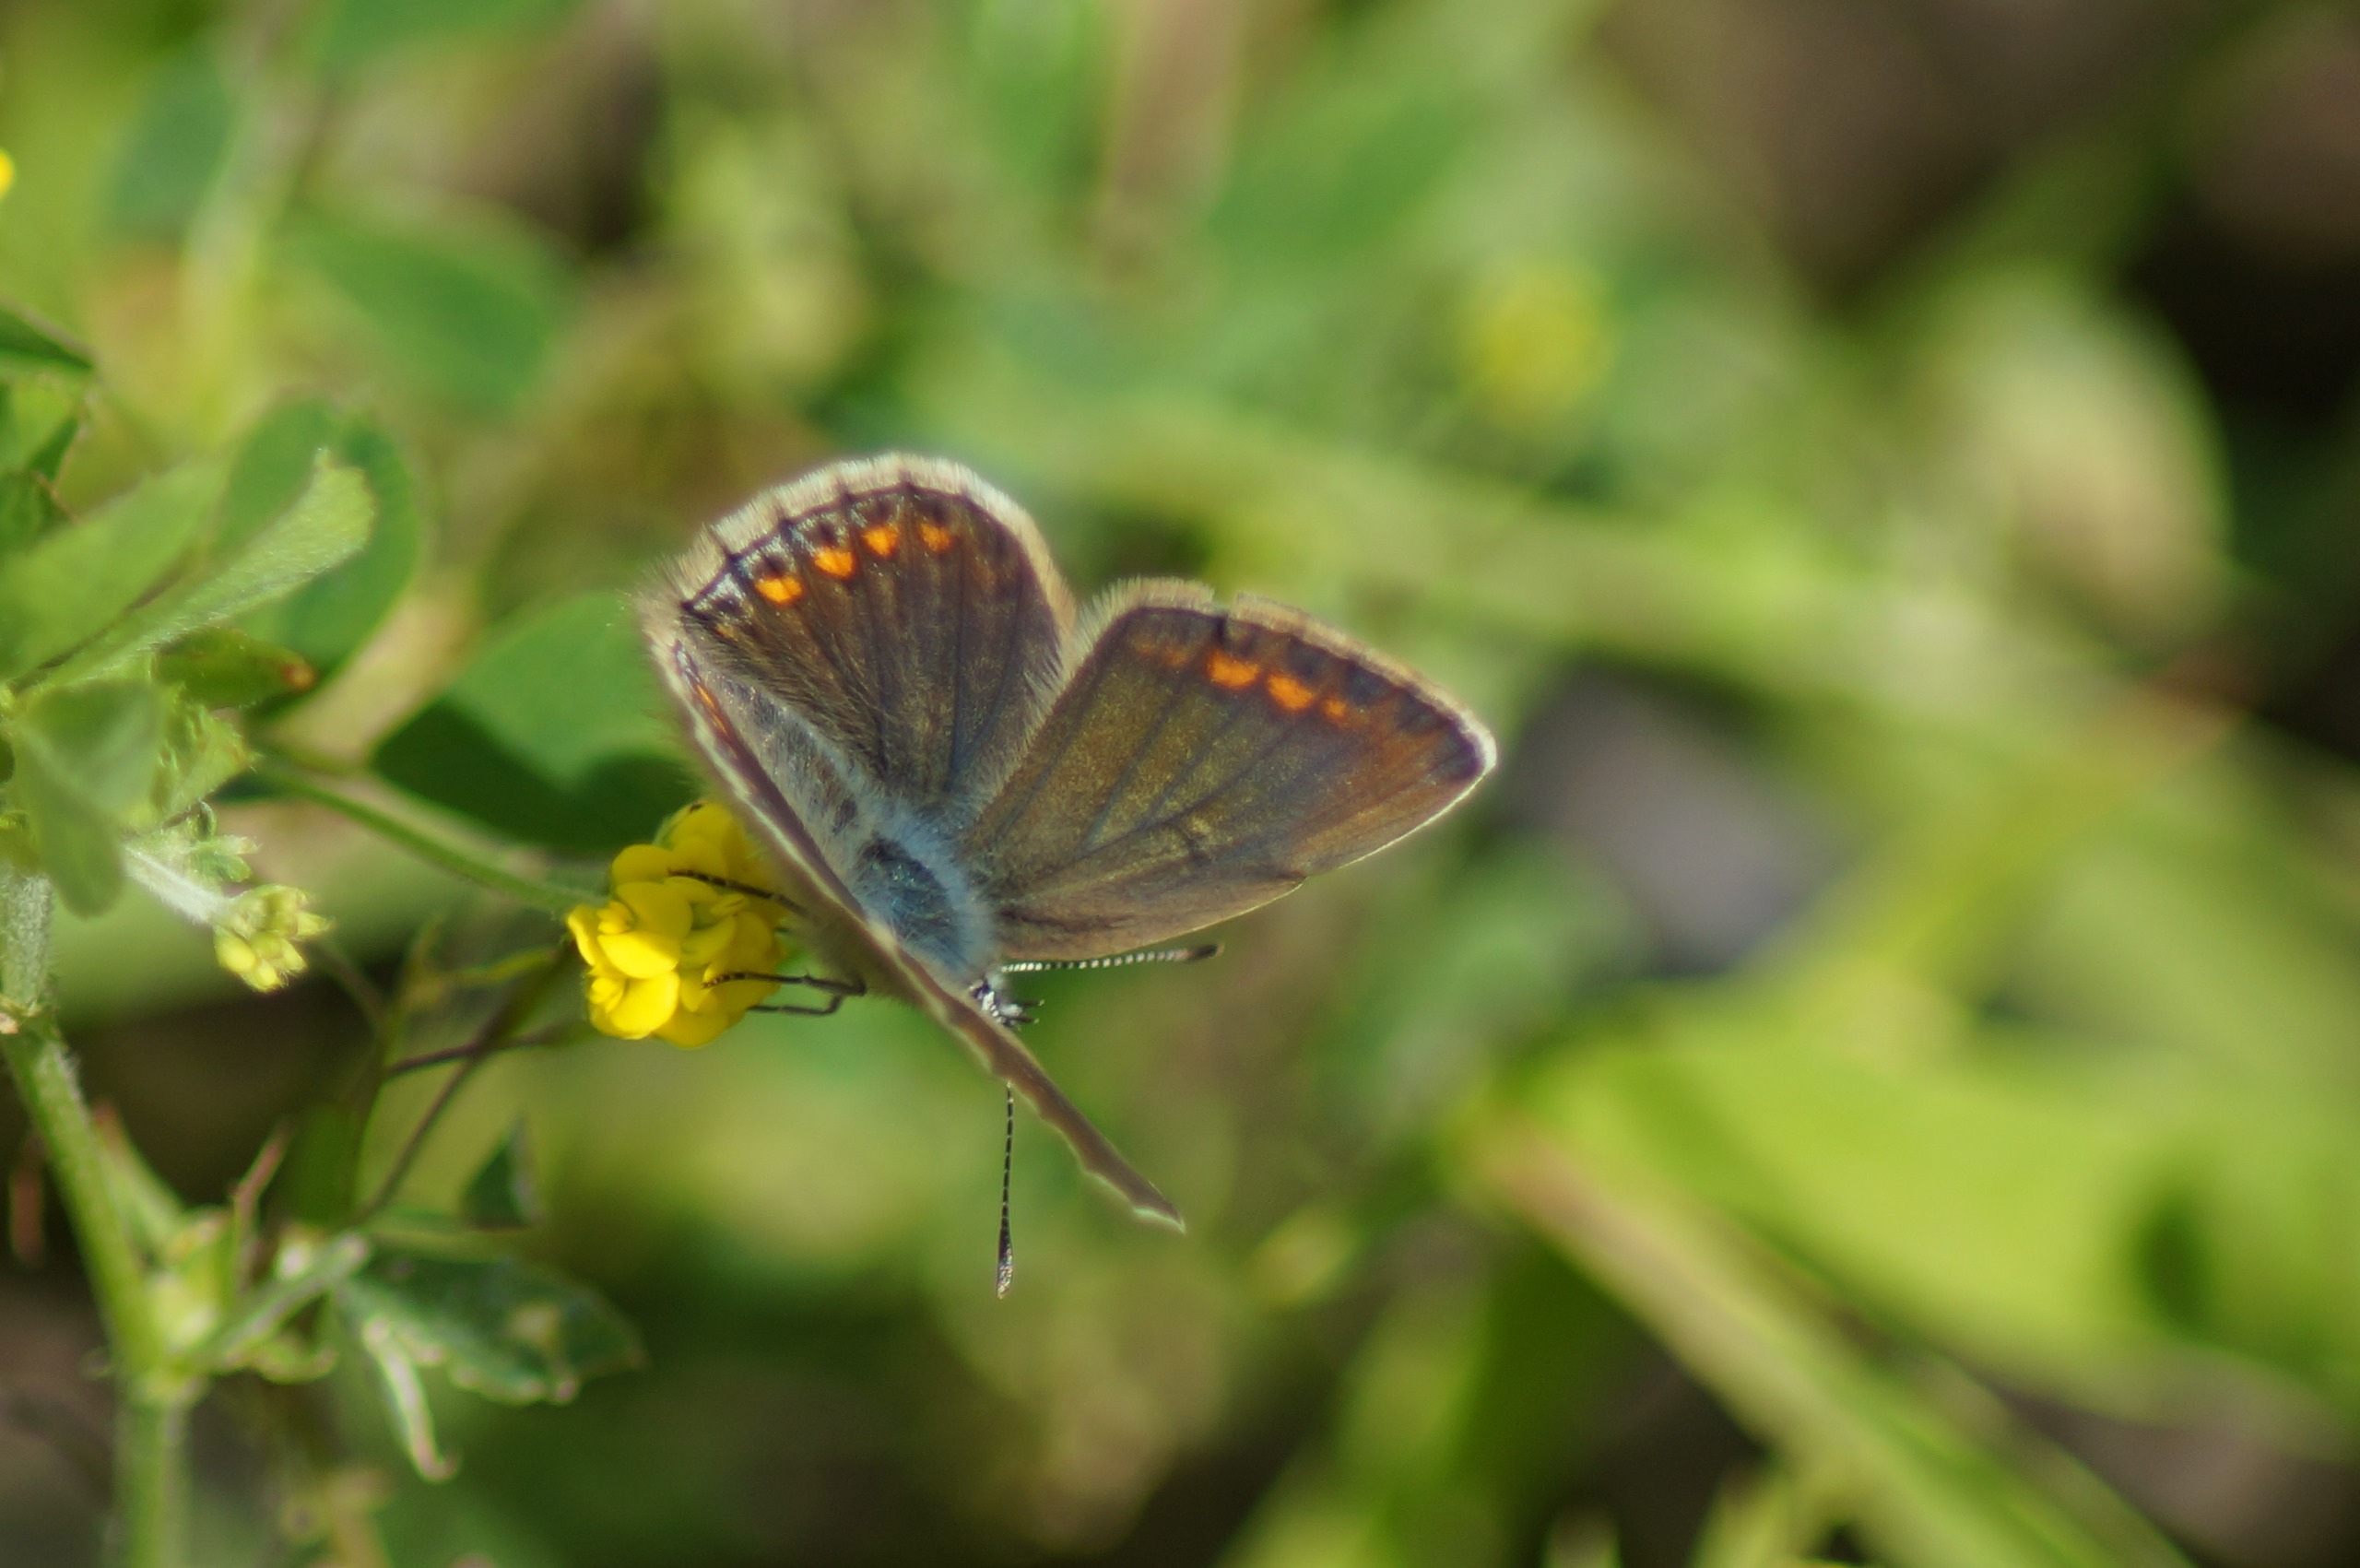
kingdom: Animalia
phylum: Arthropoda
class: Insecta
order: Lepidoptera
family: Lycaenidae
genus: Polyommatus
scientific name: Polyommatus icarus
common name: Almindelig blåfugl
